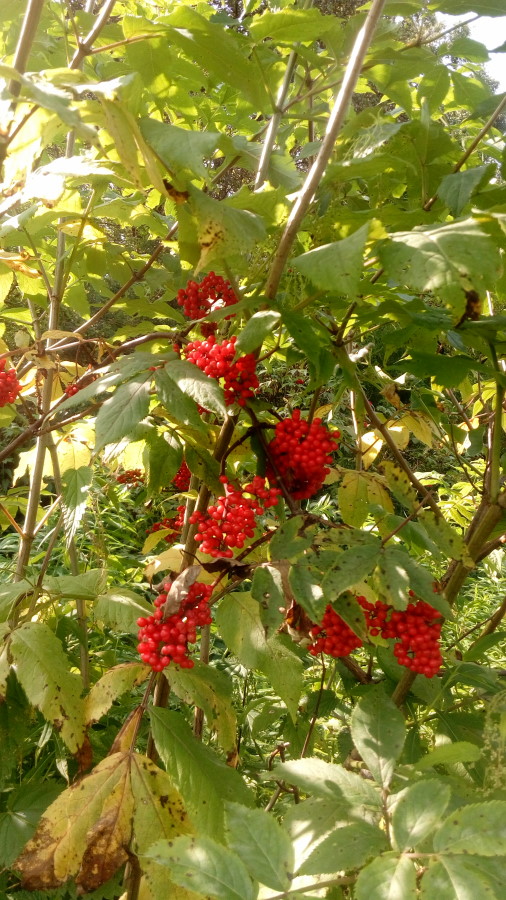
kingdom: Plantae
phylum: Tracheophyta
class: Magnoliopsida
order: Dipsacales
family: Viburnaceae
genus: Sambucus
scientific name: Sambucus racemosa
